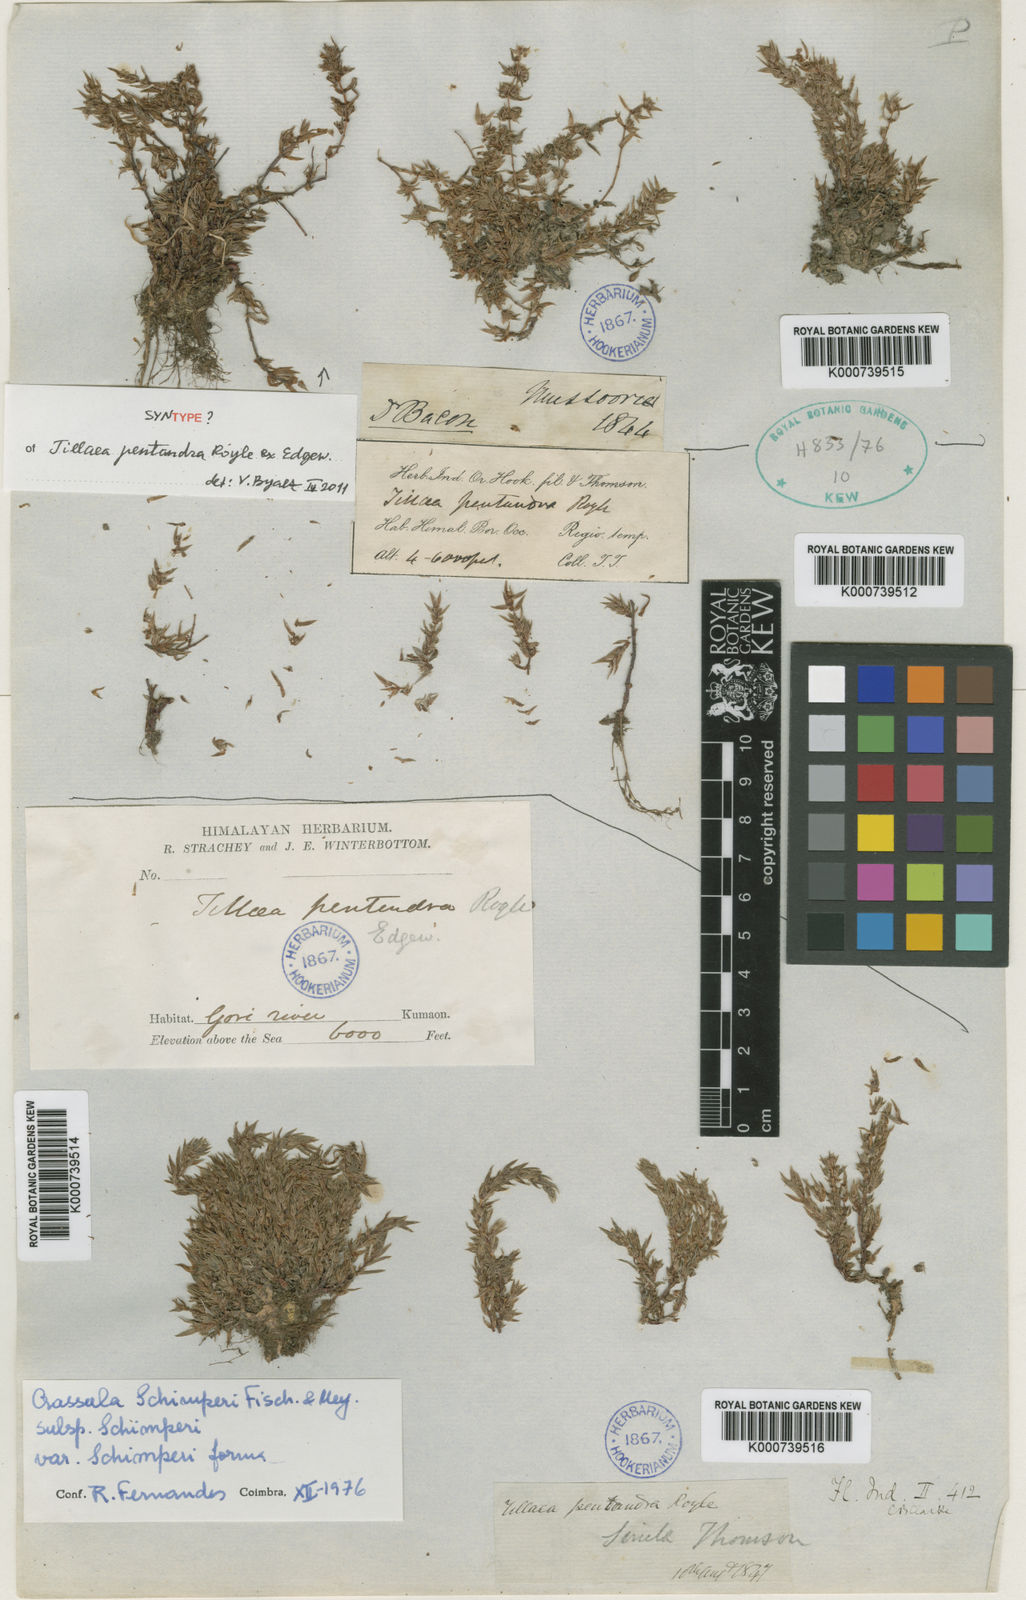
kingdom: Plantae
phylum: Tracheophyta
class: Magnoliopsida
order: Saxifragales
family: Crassulaceae
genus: Crassula
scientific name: Crassula schimperi
